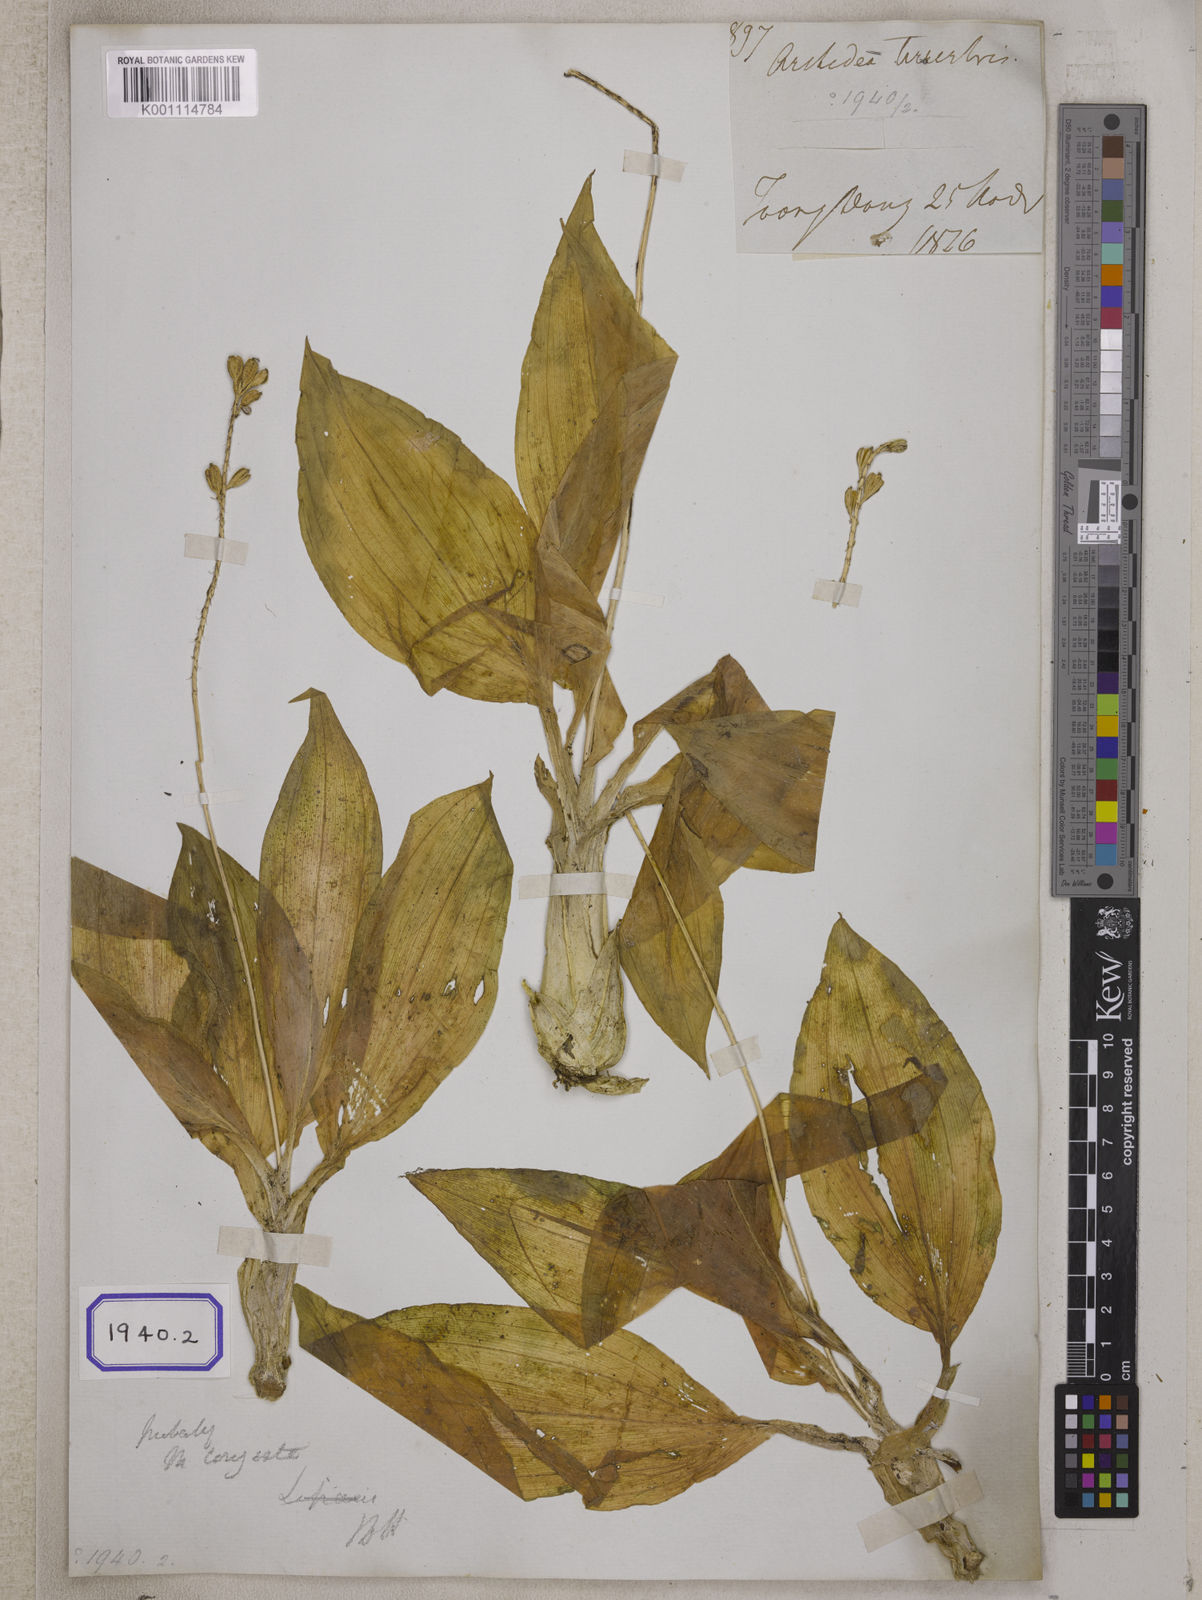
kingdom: Plantae
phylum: Tracheophyta
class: Liliopsida
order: Asparagales
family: Orchidaceae
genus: Crepidium
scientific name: Crepidium purpureum
